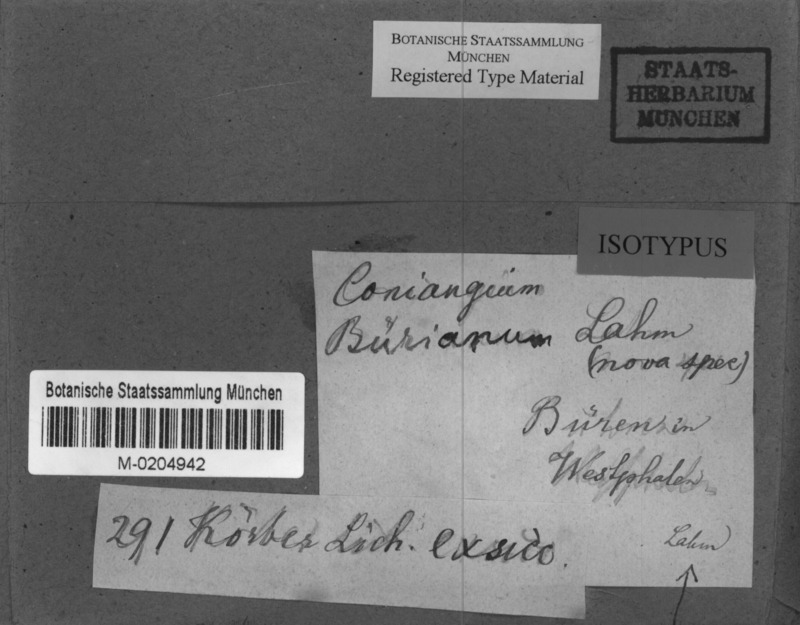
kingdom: Fungi
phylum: Ascomycota
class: Arthoniomycetes
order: Arthoniales
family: Arthoniaceae
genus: Arthonia
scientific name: Arthonia bueriana
